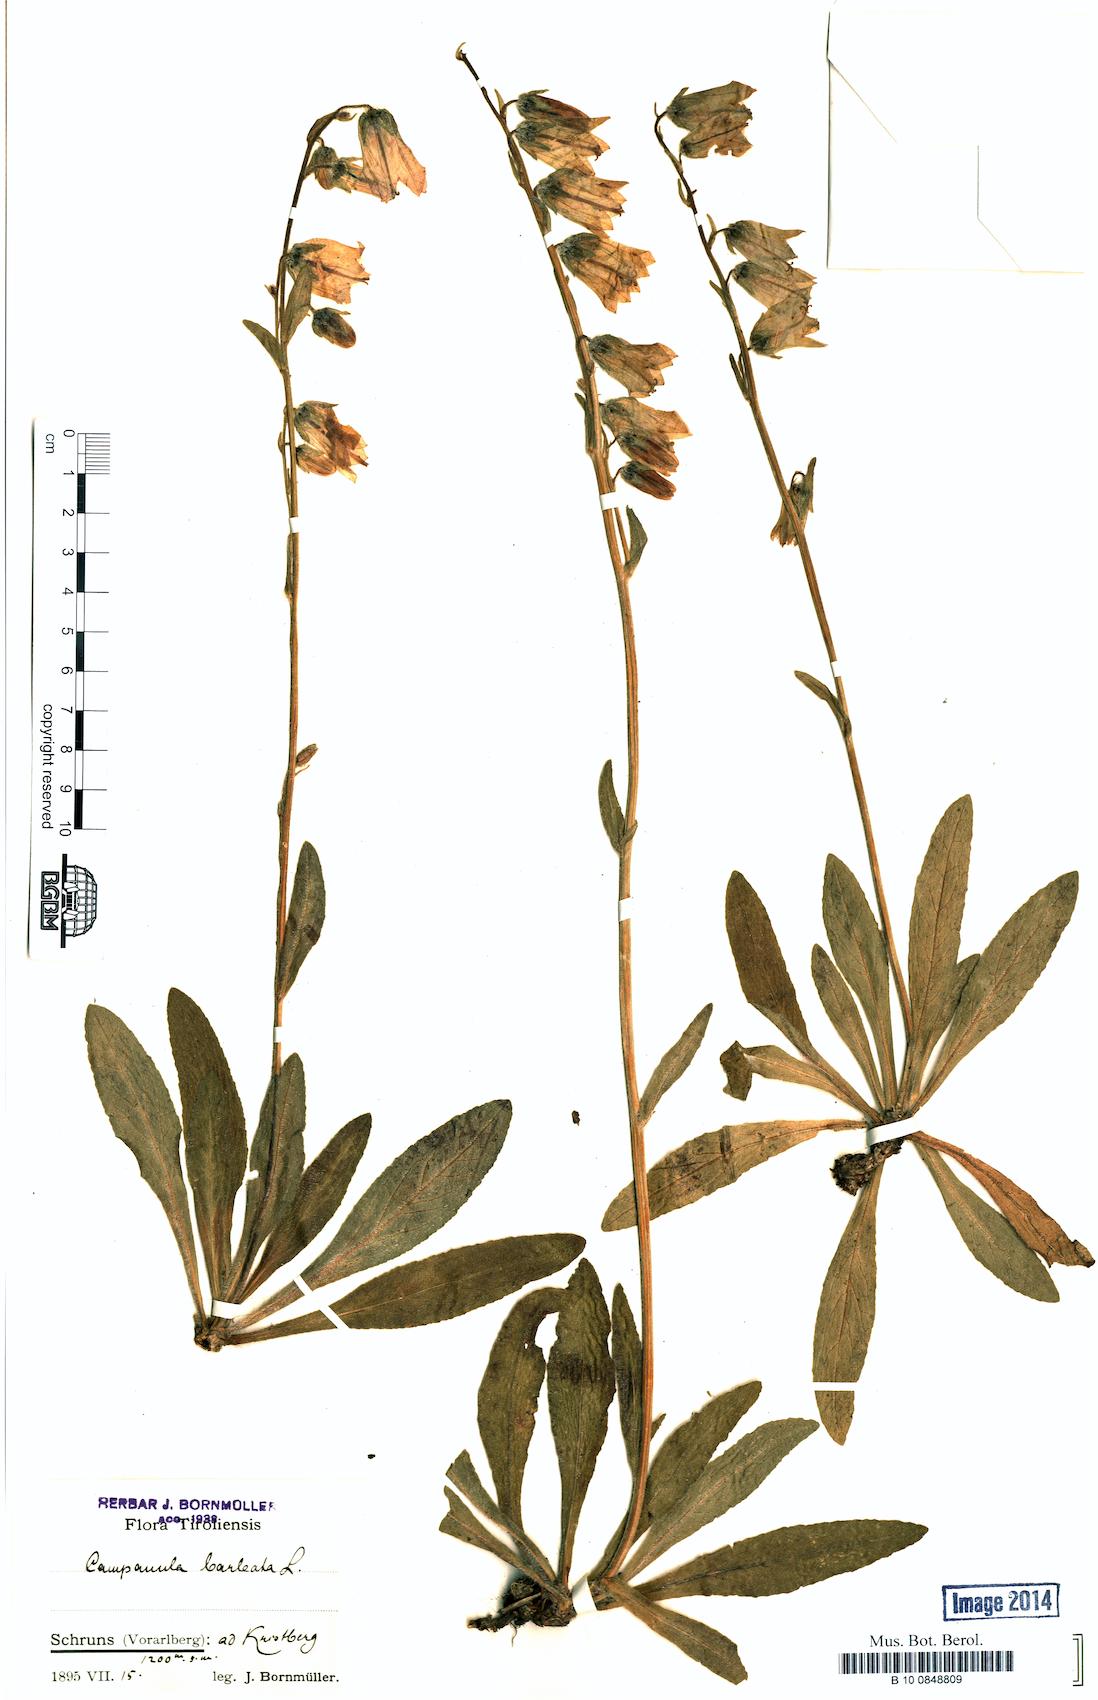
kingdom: Plantae
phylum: Tracheophyta
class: Magnoliopsida
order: Asterales
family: Campanulaceae
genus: Campanula
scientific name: Campanula barbata
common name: Bearded bellflower
